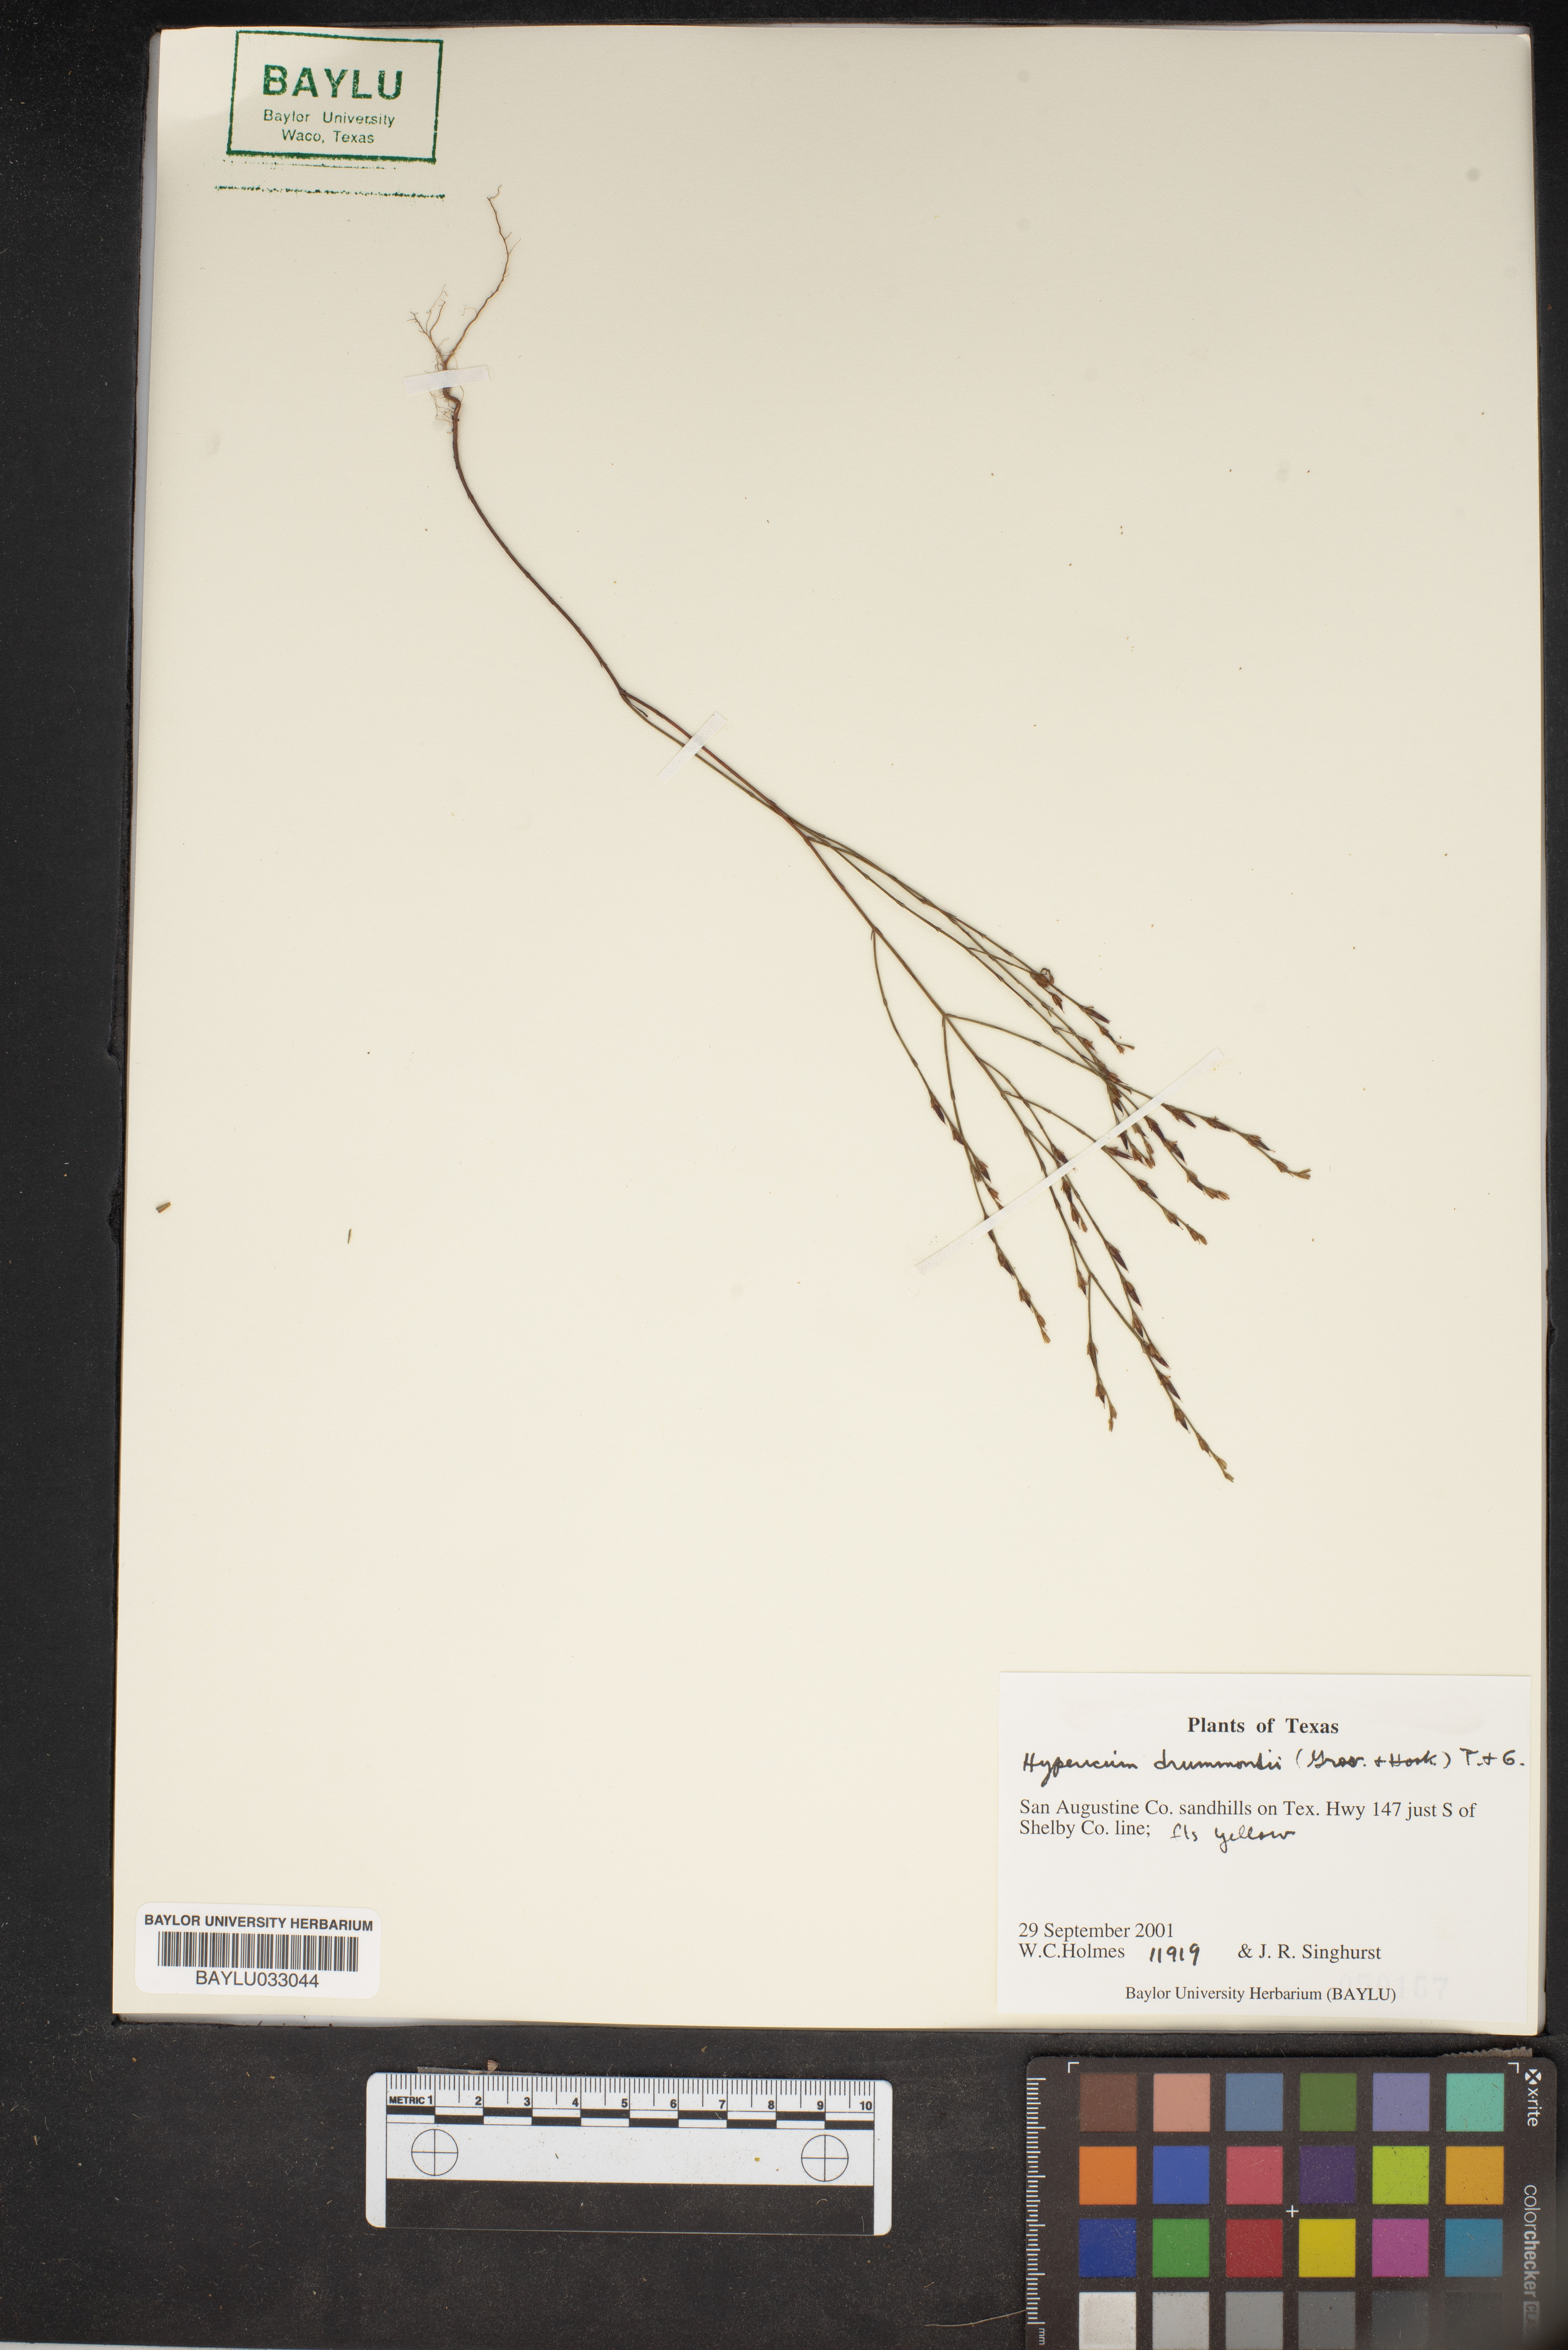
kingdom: Plantae
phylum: Tracheophyta
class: Magnoliopsida
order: Malpighiales
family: Hypericaceae
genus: Hypericum
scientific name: Hypericum drummondii
